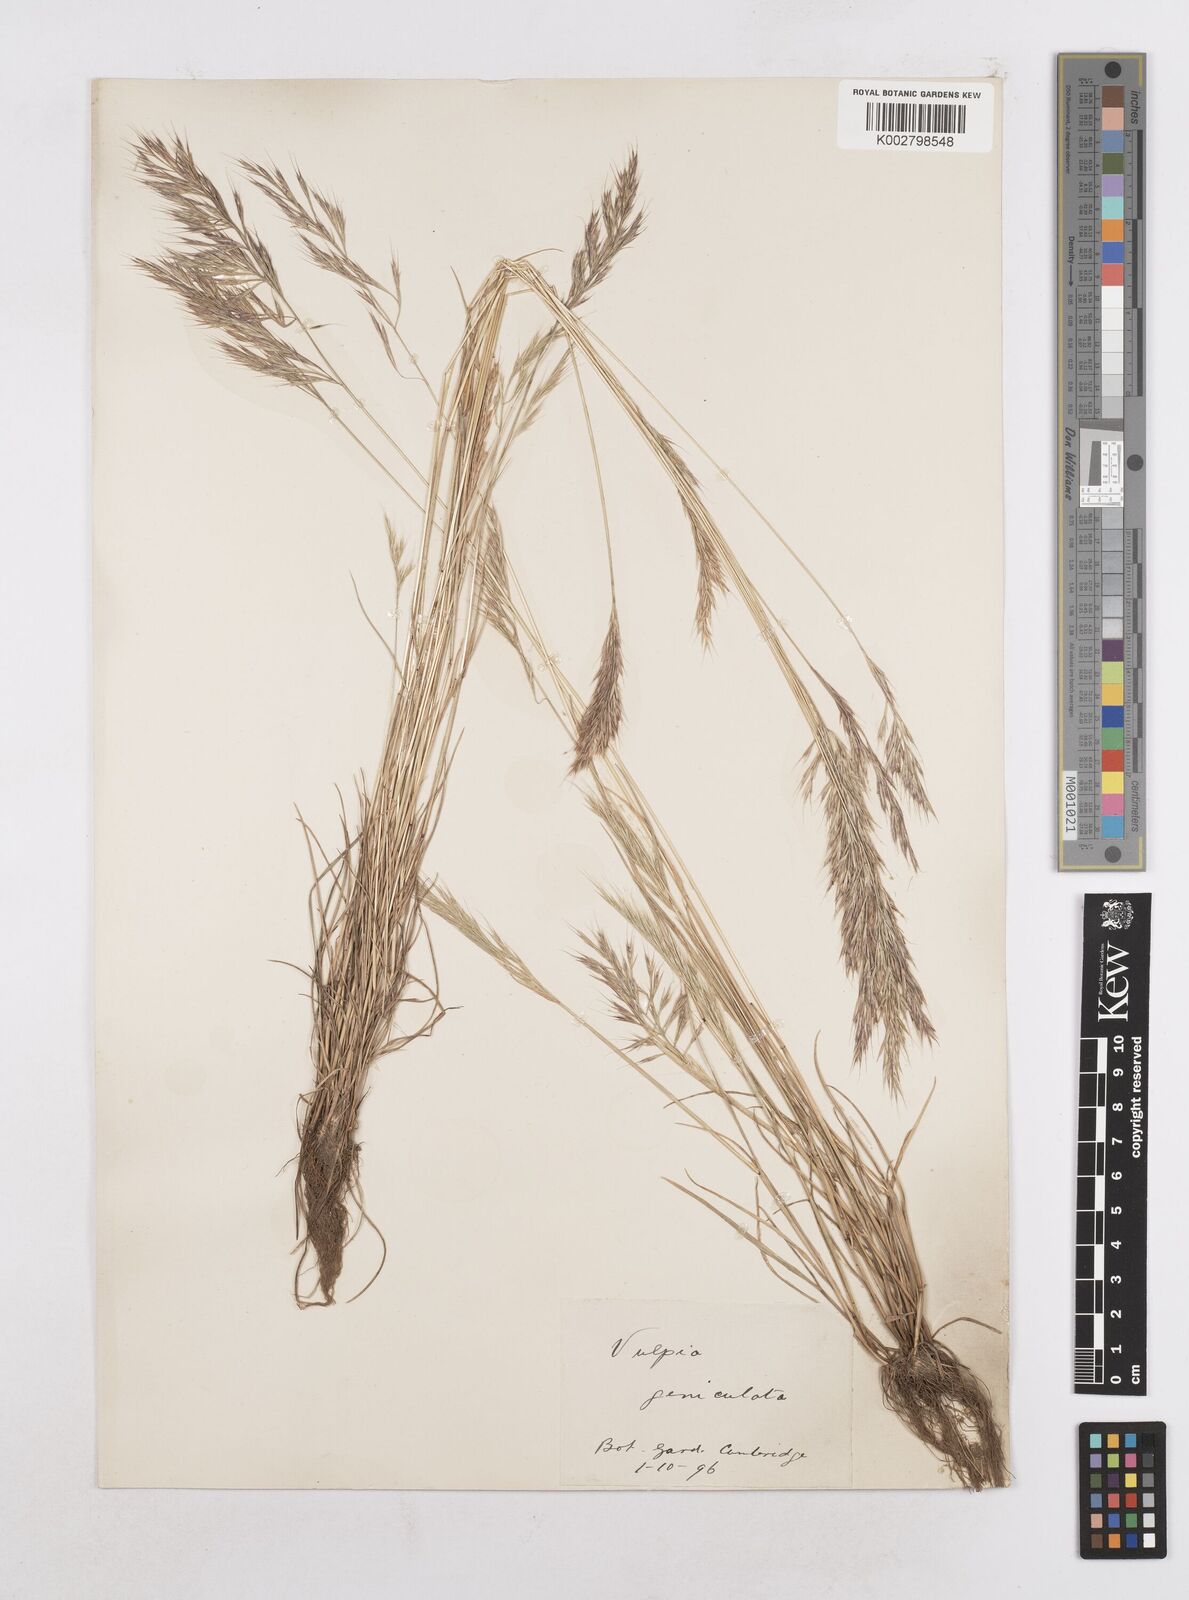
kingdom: Plantae
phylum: Tracheophyta
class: Liliopsida
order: Poales
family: Poaceae
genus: Festuca
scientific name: Festuca geniculata
